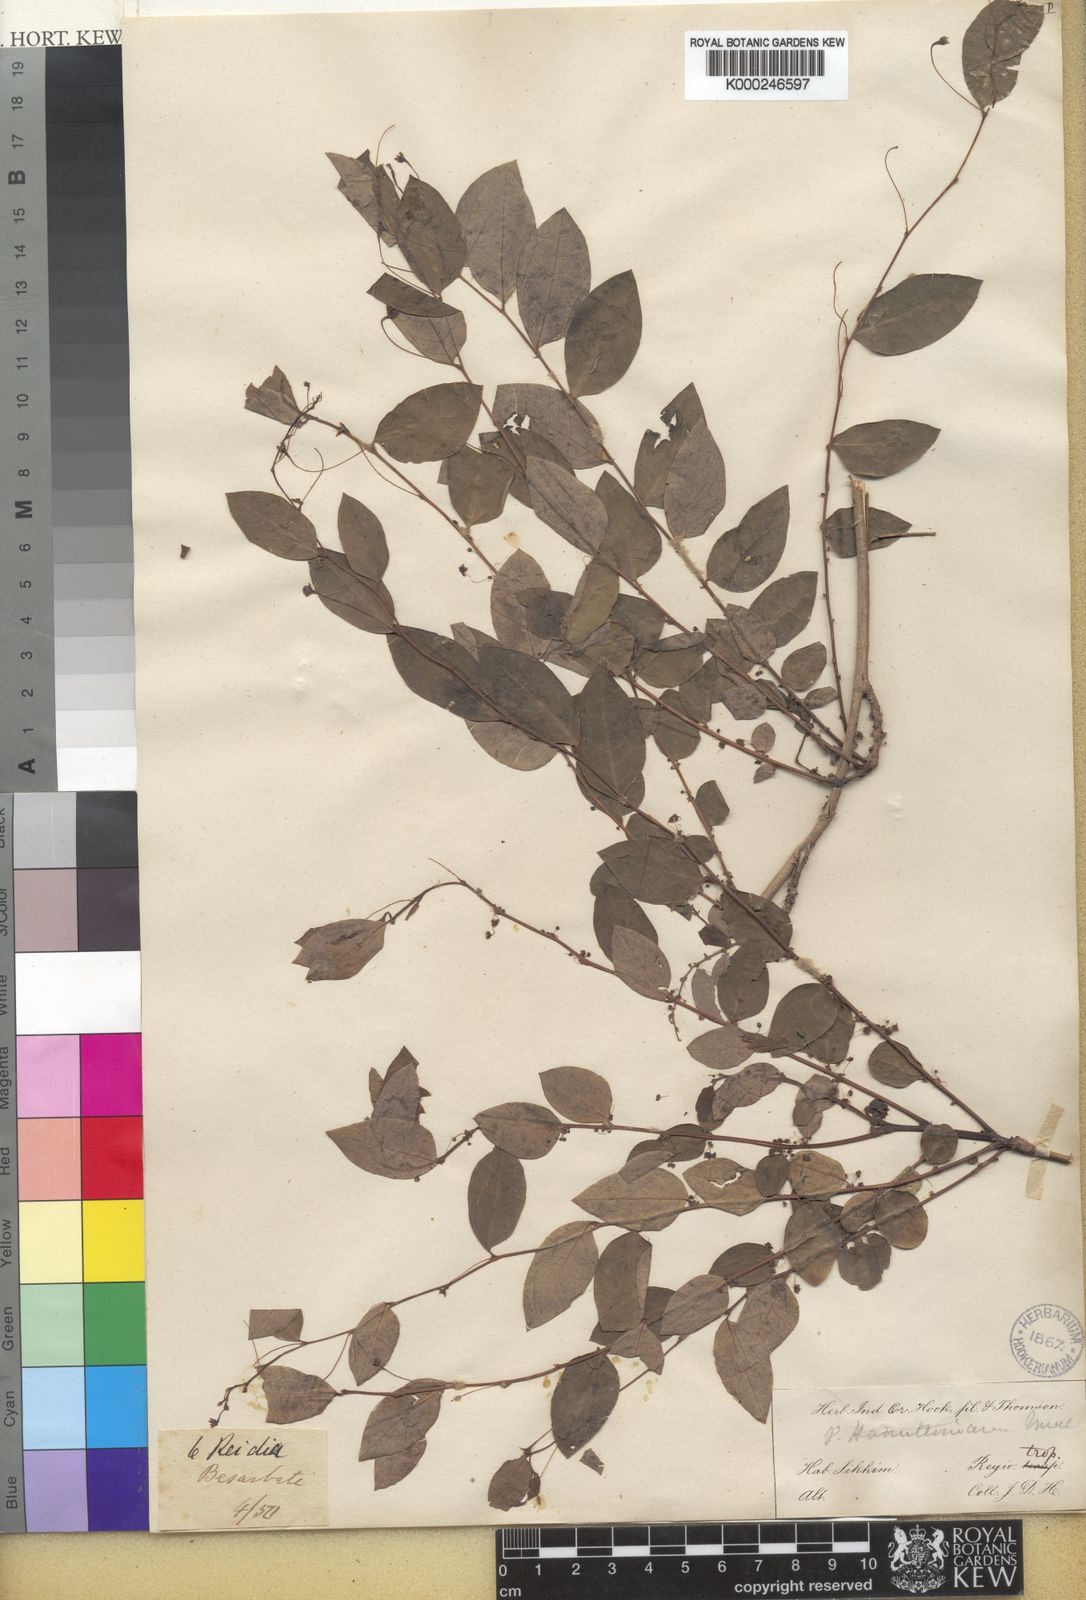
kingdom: Plantae
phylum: Tracheophyta
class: Magnoliopsida
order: Malpighiales
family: Phyllanthaceae
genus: Phyllanthus
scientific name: Phyllanthus
